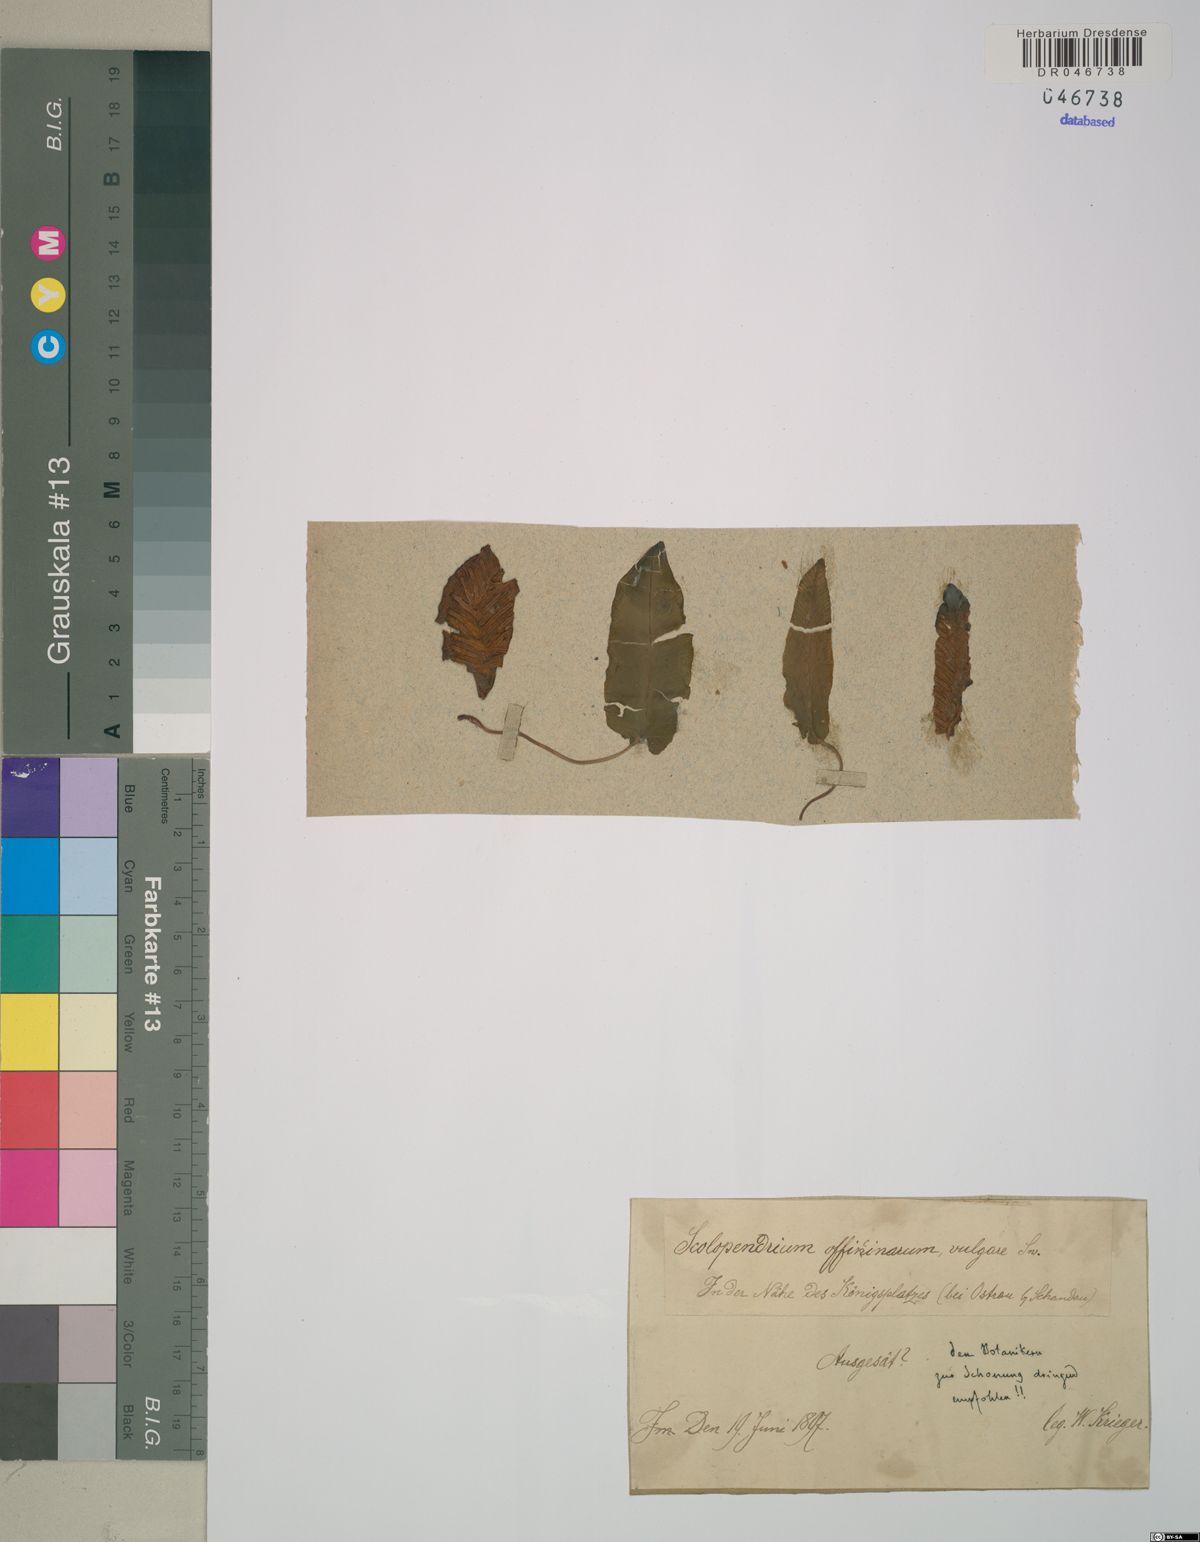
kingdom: Plantae
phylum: Tracheophyta
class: Polypodiopsida
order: Polypodiales
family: Aspleniaceae
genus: Asplenium
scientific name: Asplenium scolopendrium
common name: Hart's-tongue fern
